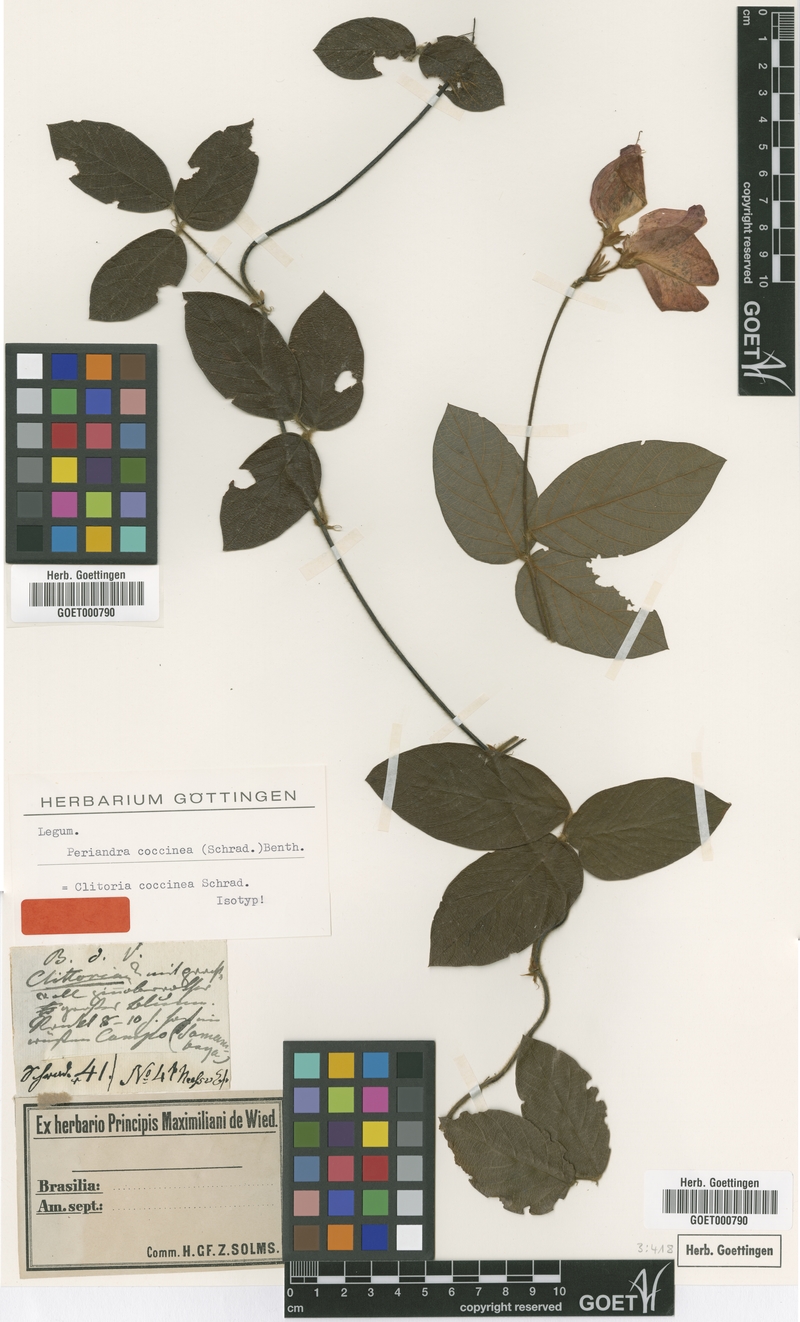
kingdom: Plantae
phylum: Tracheophyta
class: Magnoliopsida
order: Fabales
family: Fabaceae
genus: Periandra
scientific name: Periandra coccinea
